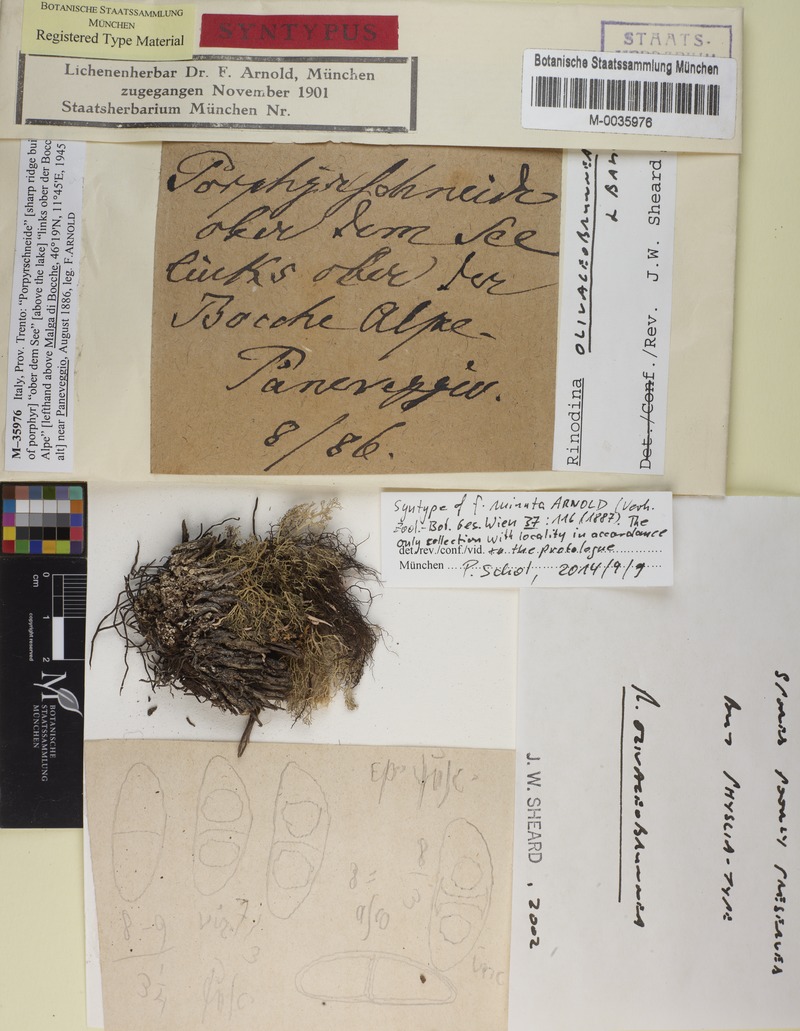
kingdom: Fungi
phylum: Ascomycota
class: Lecanoromycetes
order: Caliciales
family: Physciaceae
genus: Rinodina
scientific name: Rinodina olivaceobrunnea
